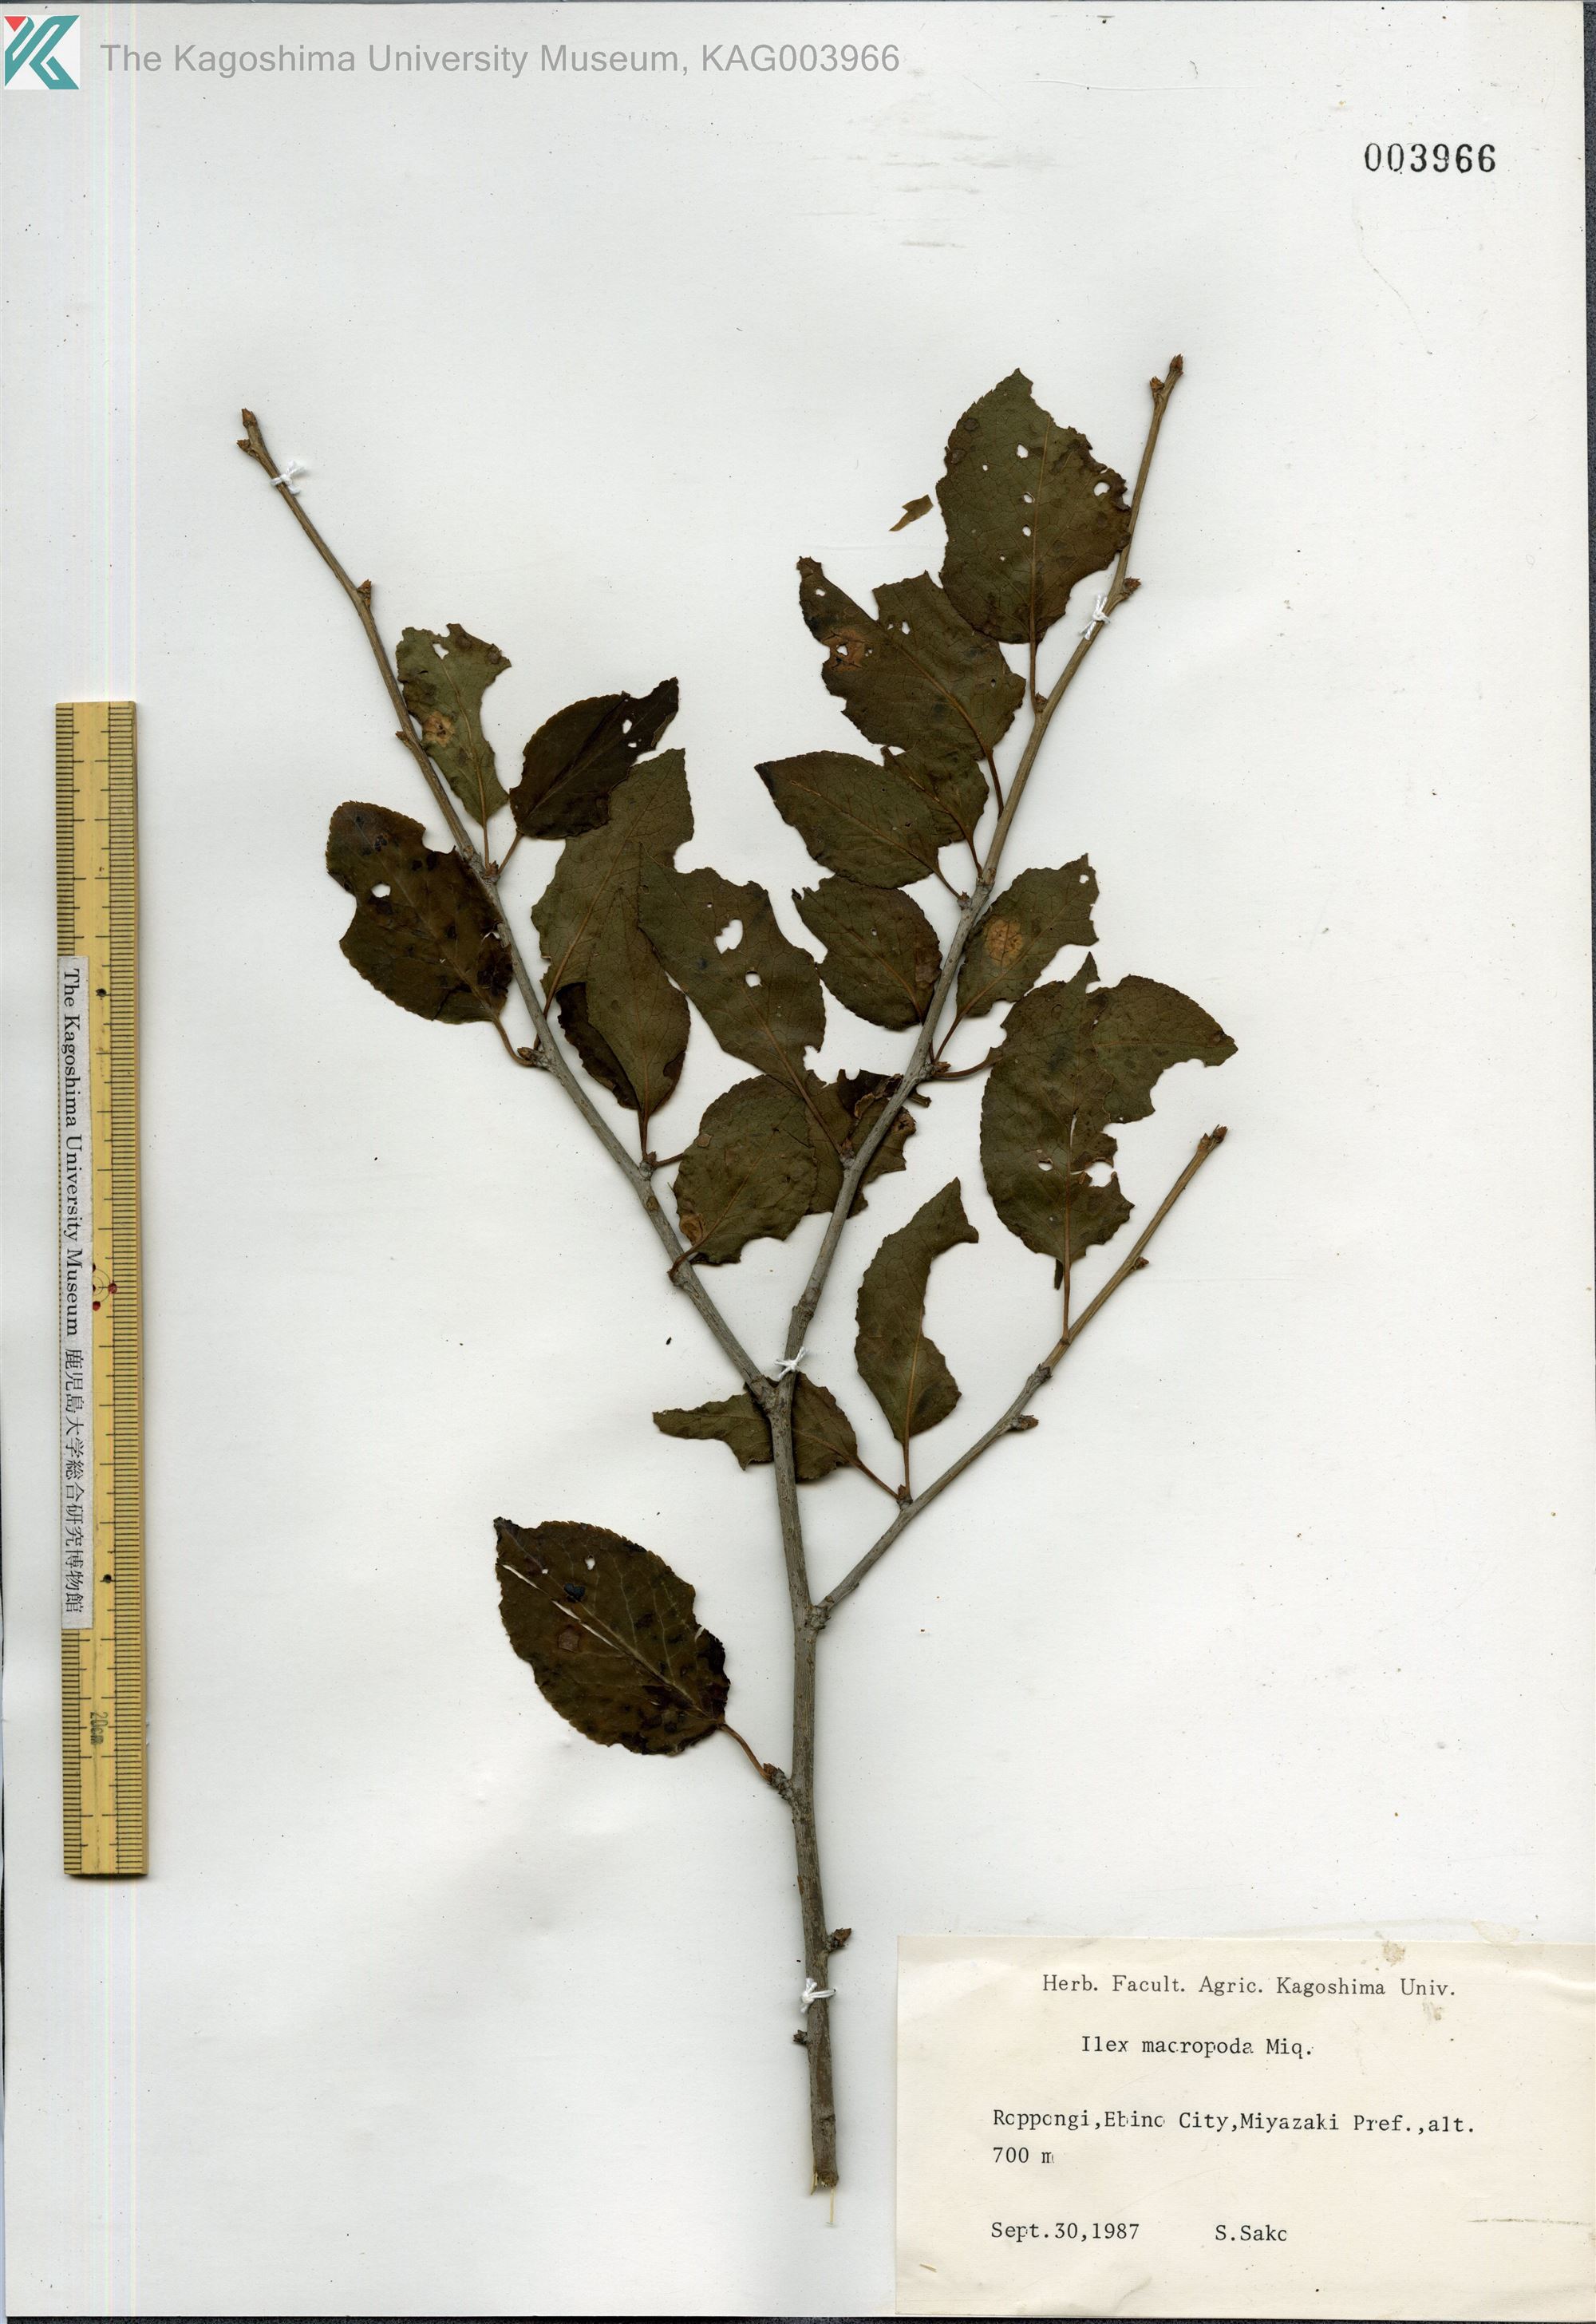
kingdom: Plantae
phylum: Tracheophyta
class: Magnoliopsida
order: Aquifoliales
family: Aquifoliaceae
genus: Ilex
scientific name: Ilex macropoda
